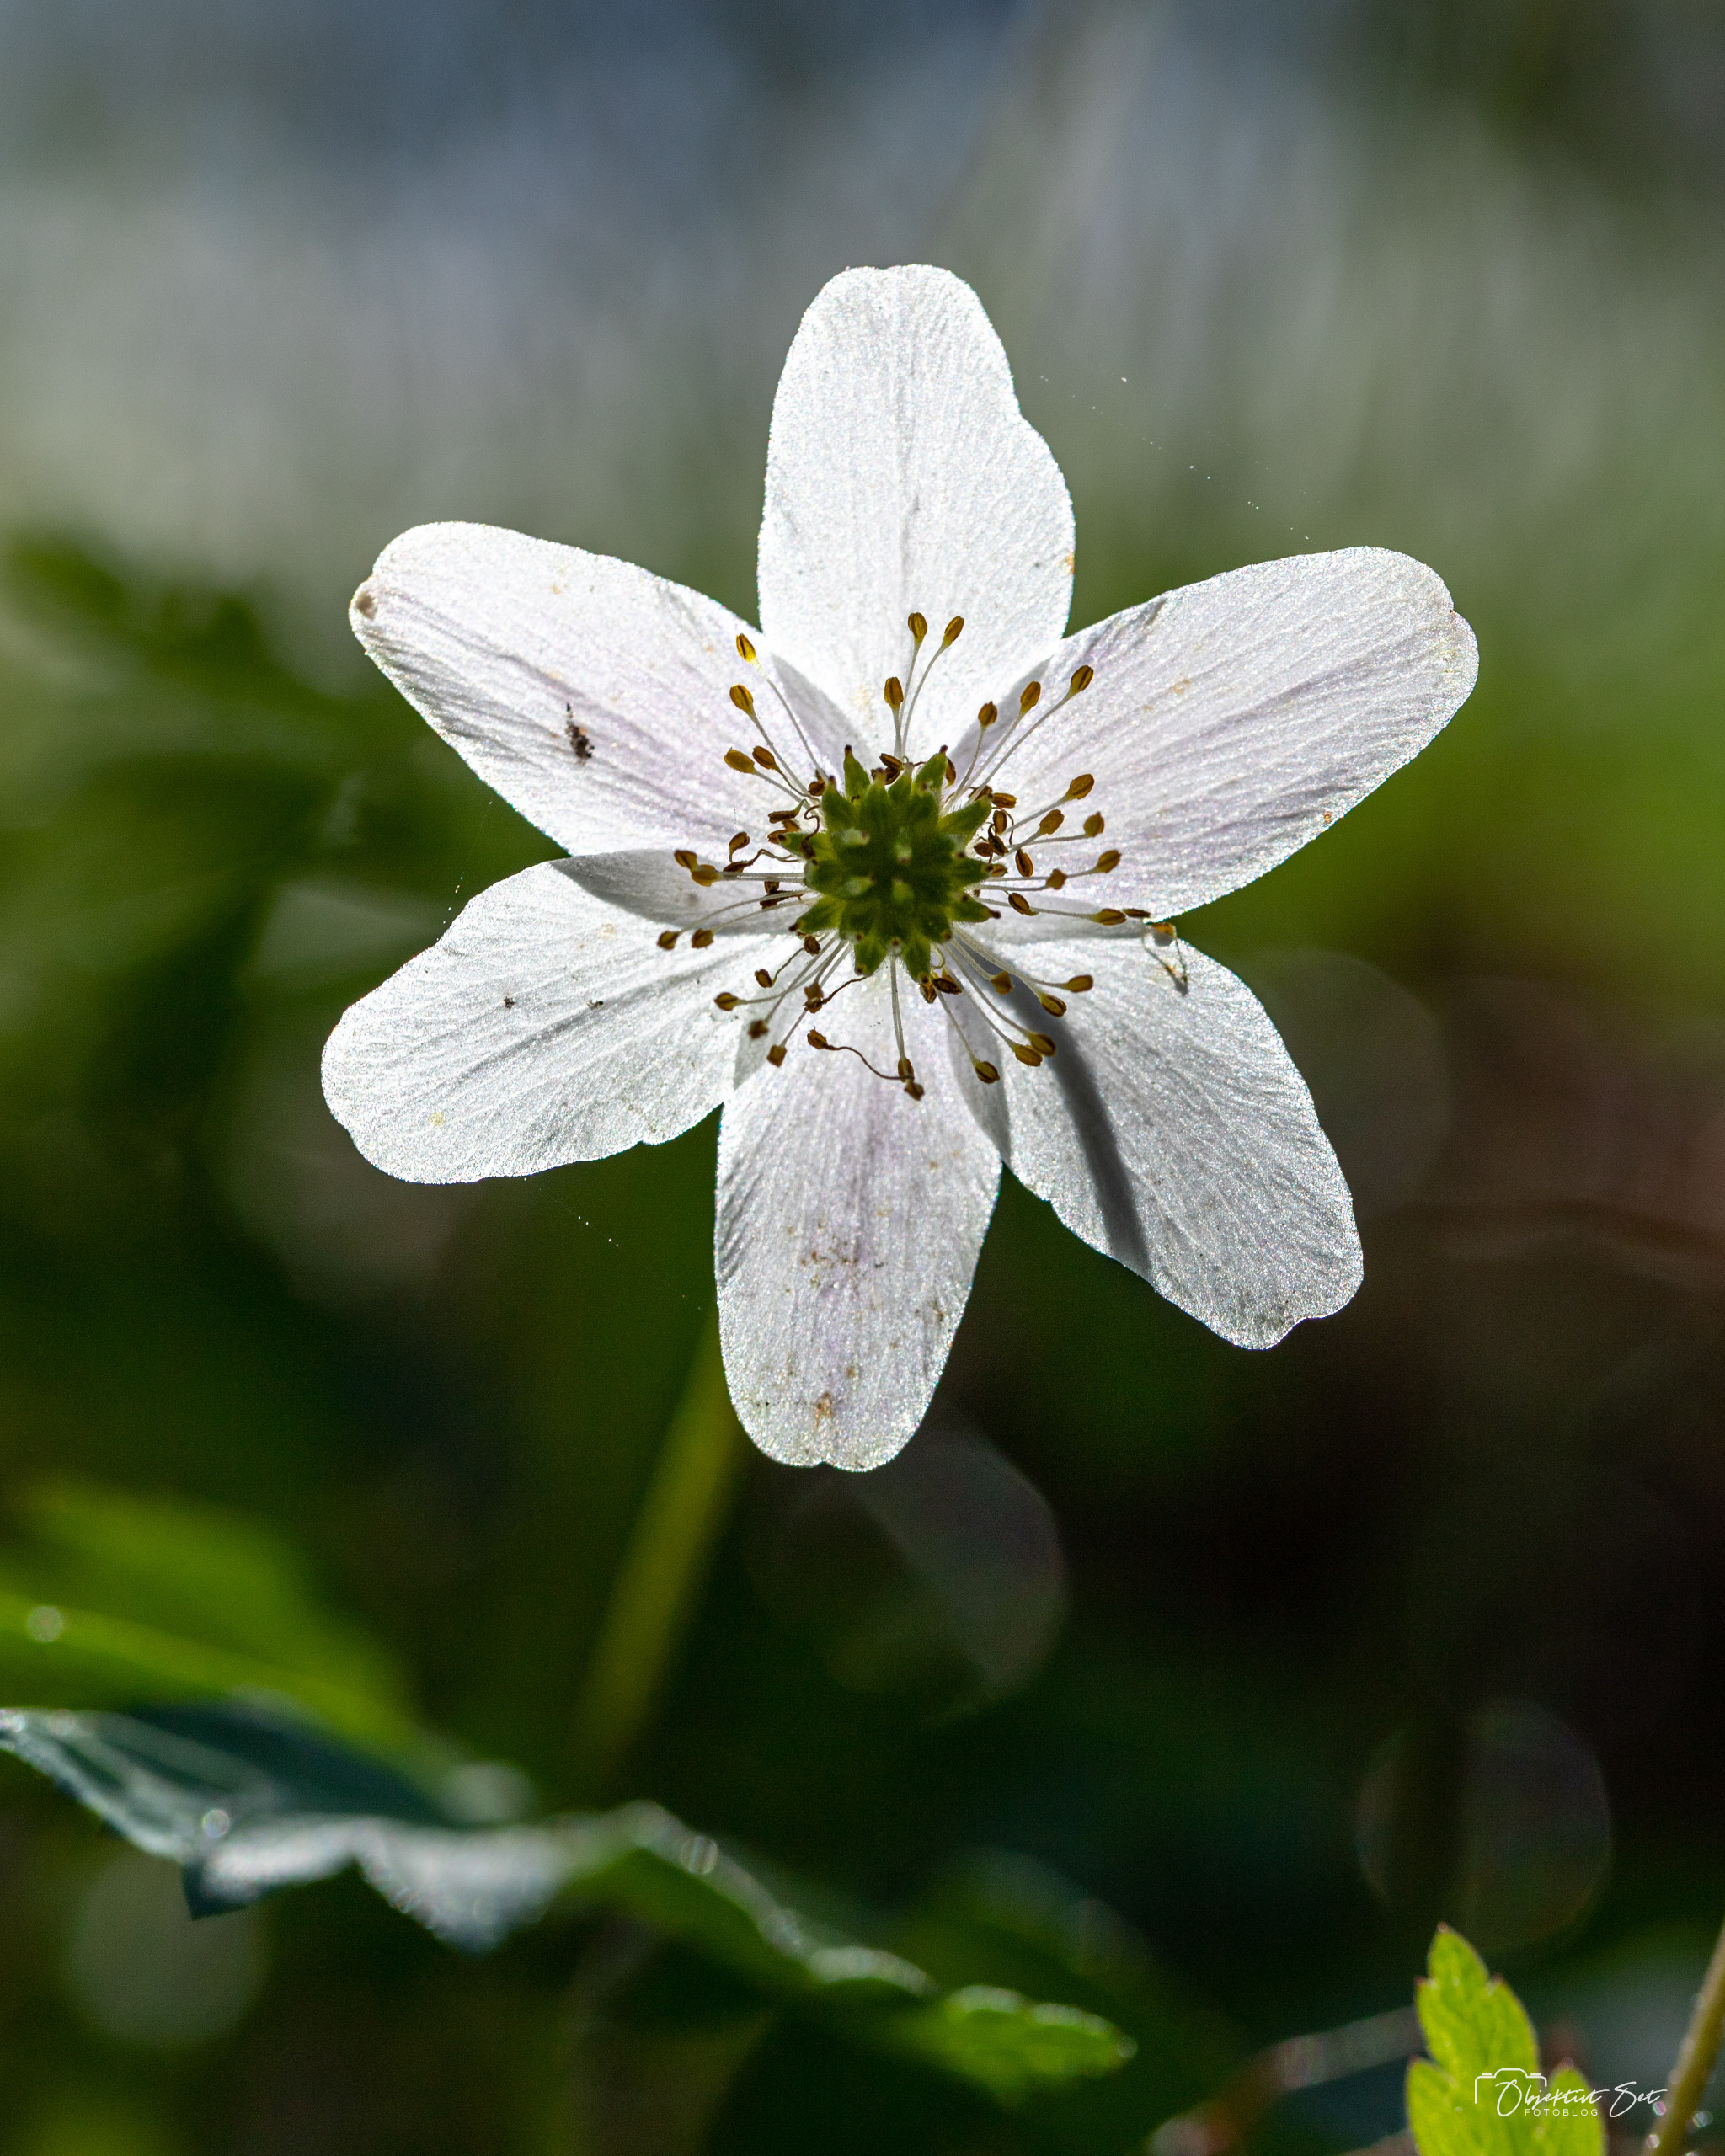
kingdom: Plantae
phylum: Tracheophyta
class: Magnoliopsida
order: Ranunculales
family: Ranunculaceae
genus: Anemone
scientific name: Anemone nemorosa
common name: Hvid anemone
